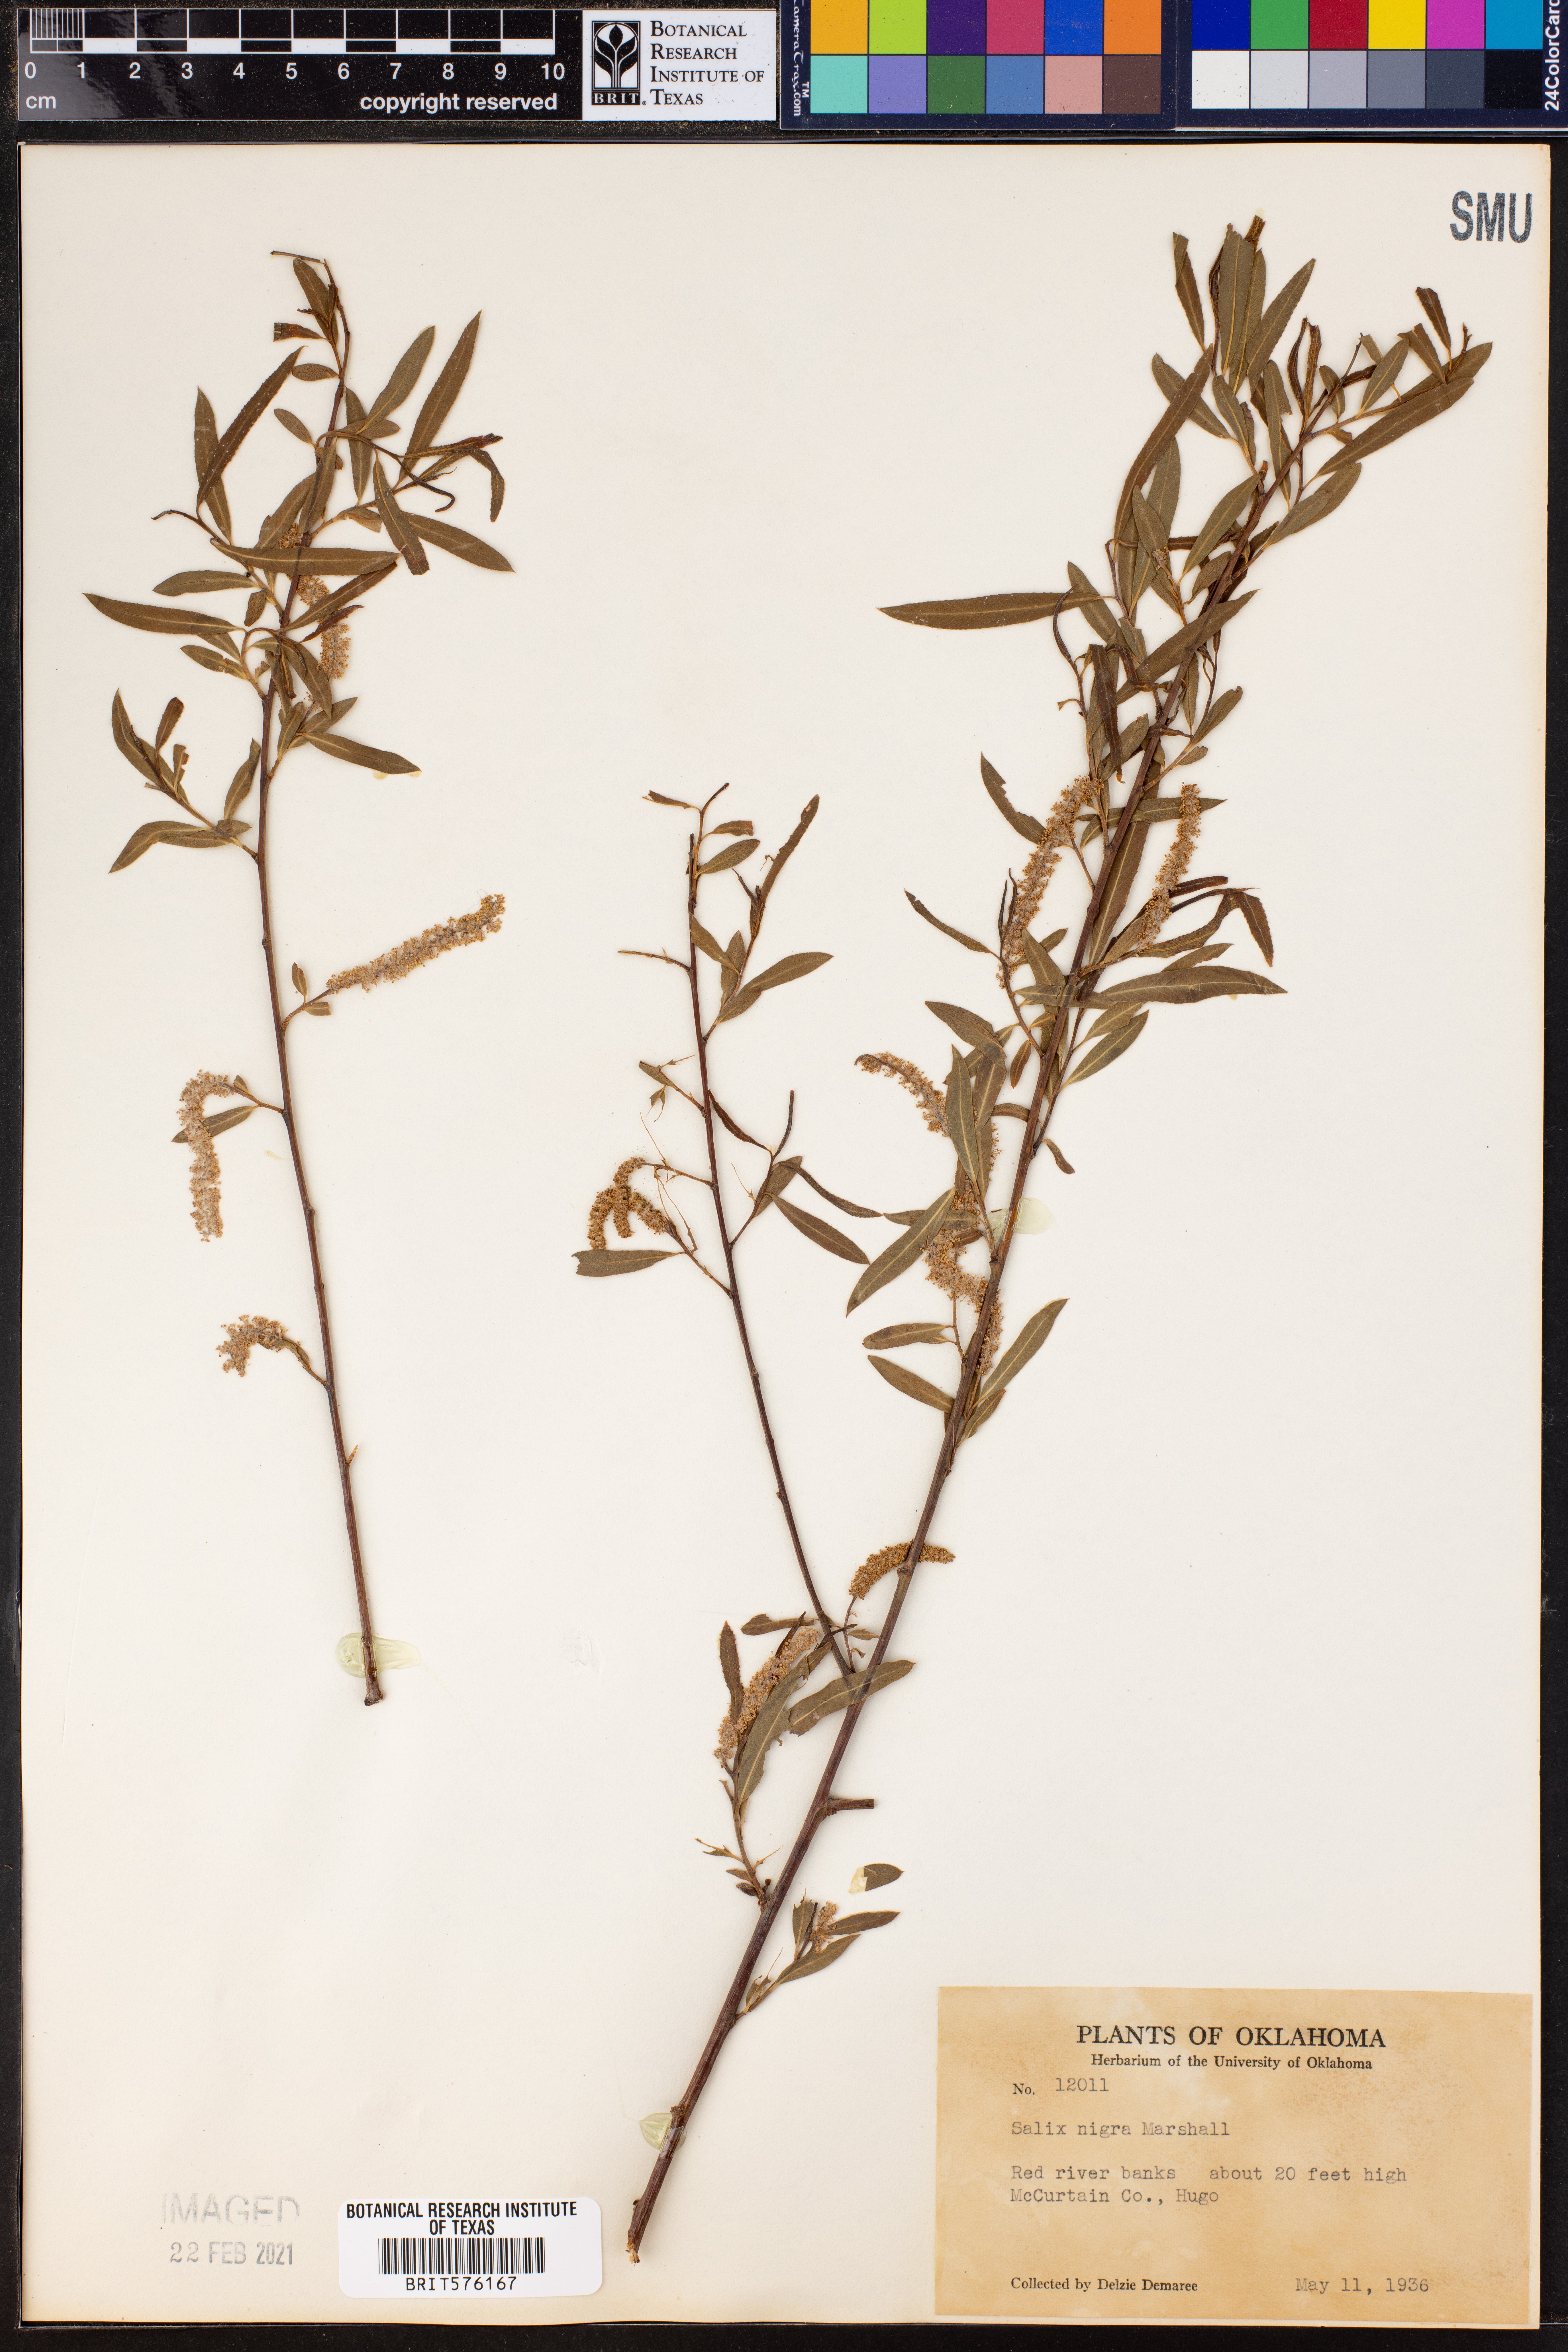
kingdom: Plantae
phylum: Tracheophyta
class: Magnoliopsida
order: Malpighiales
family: Salicaceae
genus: Salix
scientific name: Salix nigra
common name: Black willow
